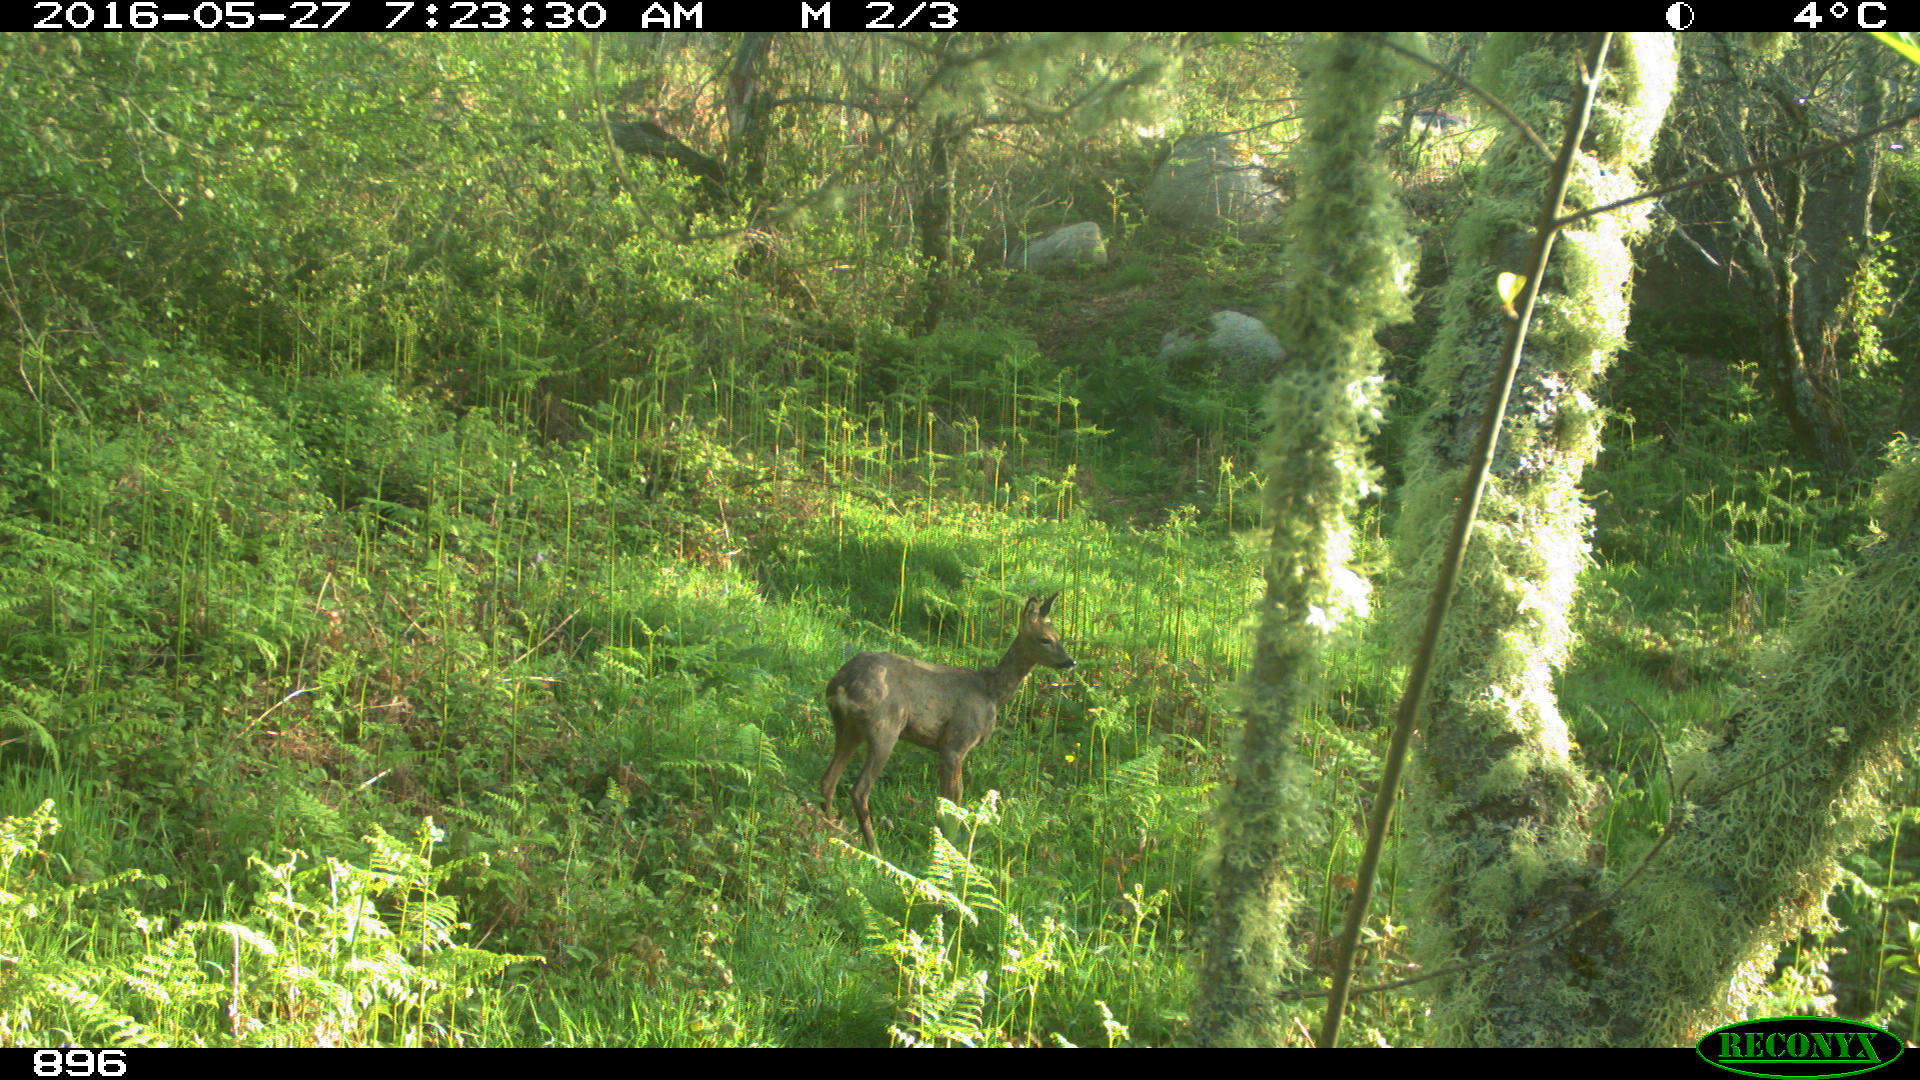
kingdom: Animalia
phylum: Chordata
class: Mammalia
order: Artiodactyla
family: Cervidae
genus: Capreolus
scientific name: Capreolus capreolus
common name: Western roe deer
